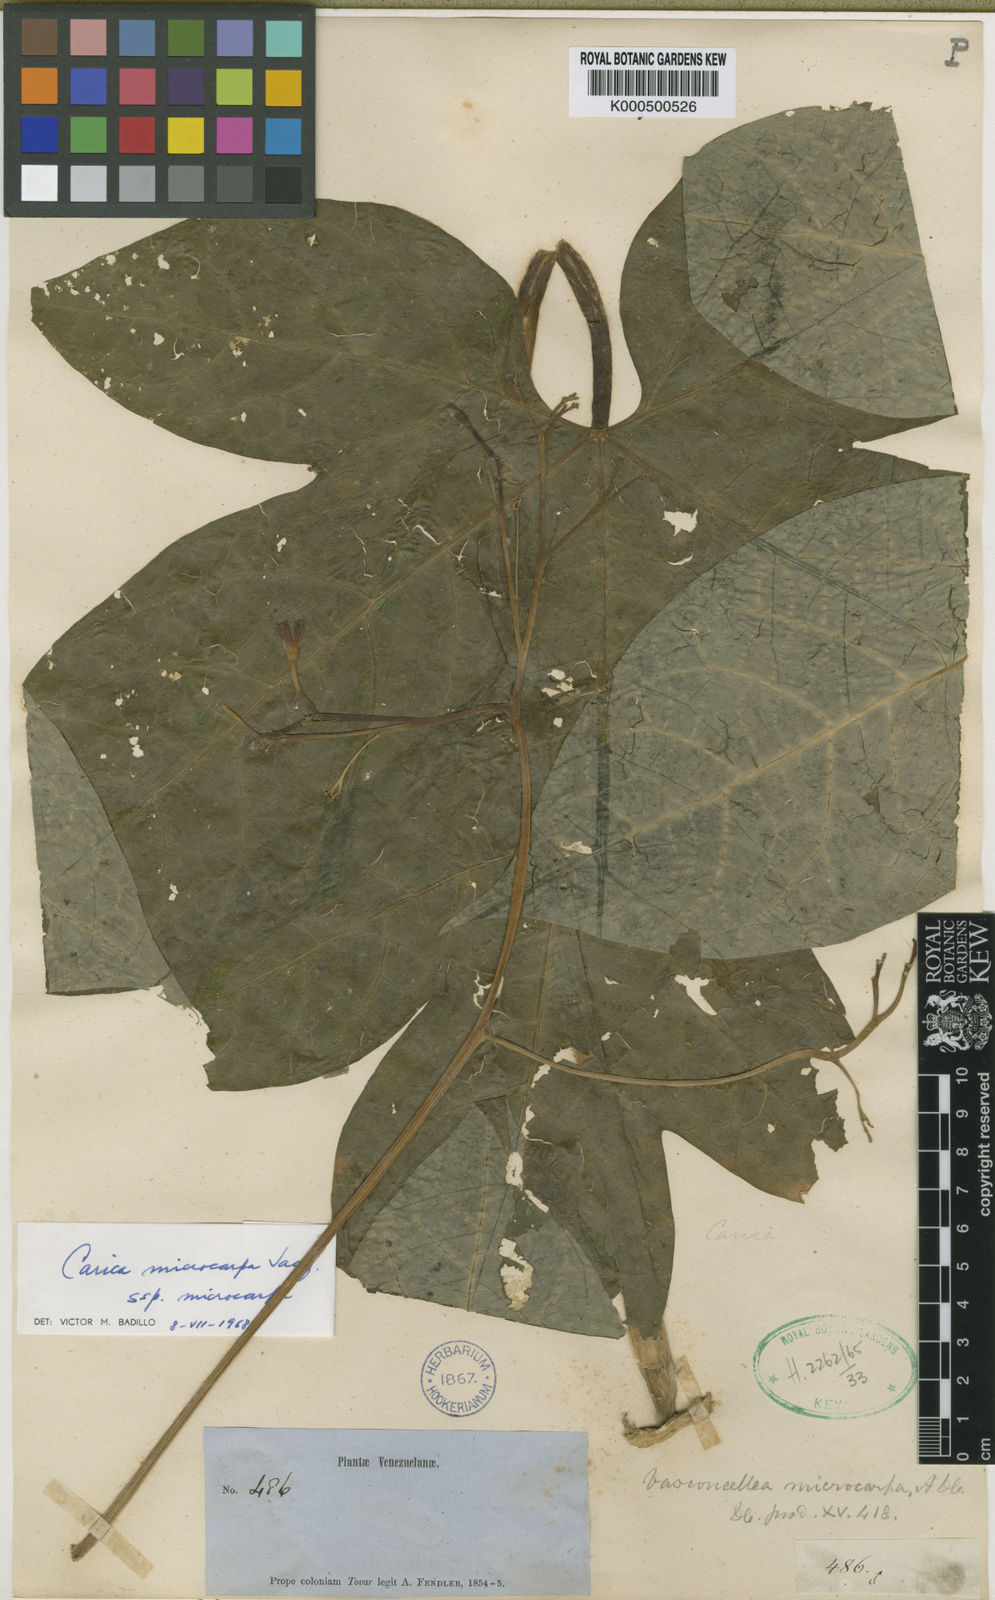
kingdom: Plantae
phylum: Tracheophyta
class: Magnoliopsida
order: Brassicales
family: Caricaceae
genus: Vasconcellea
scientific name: Vasconcellea microcarpa
